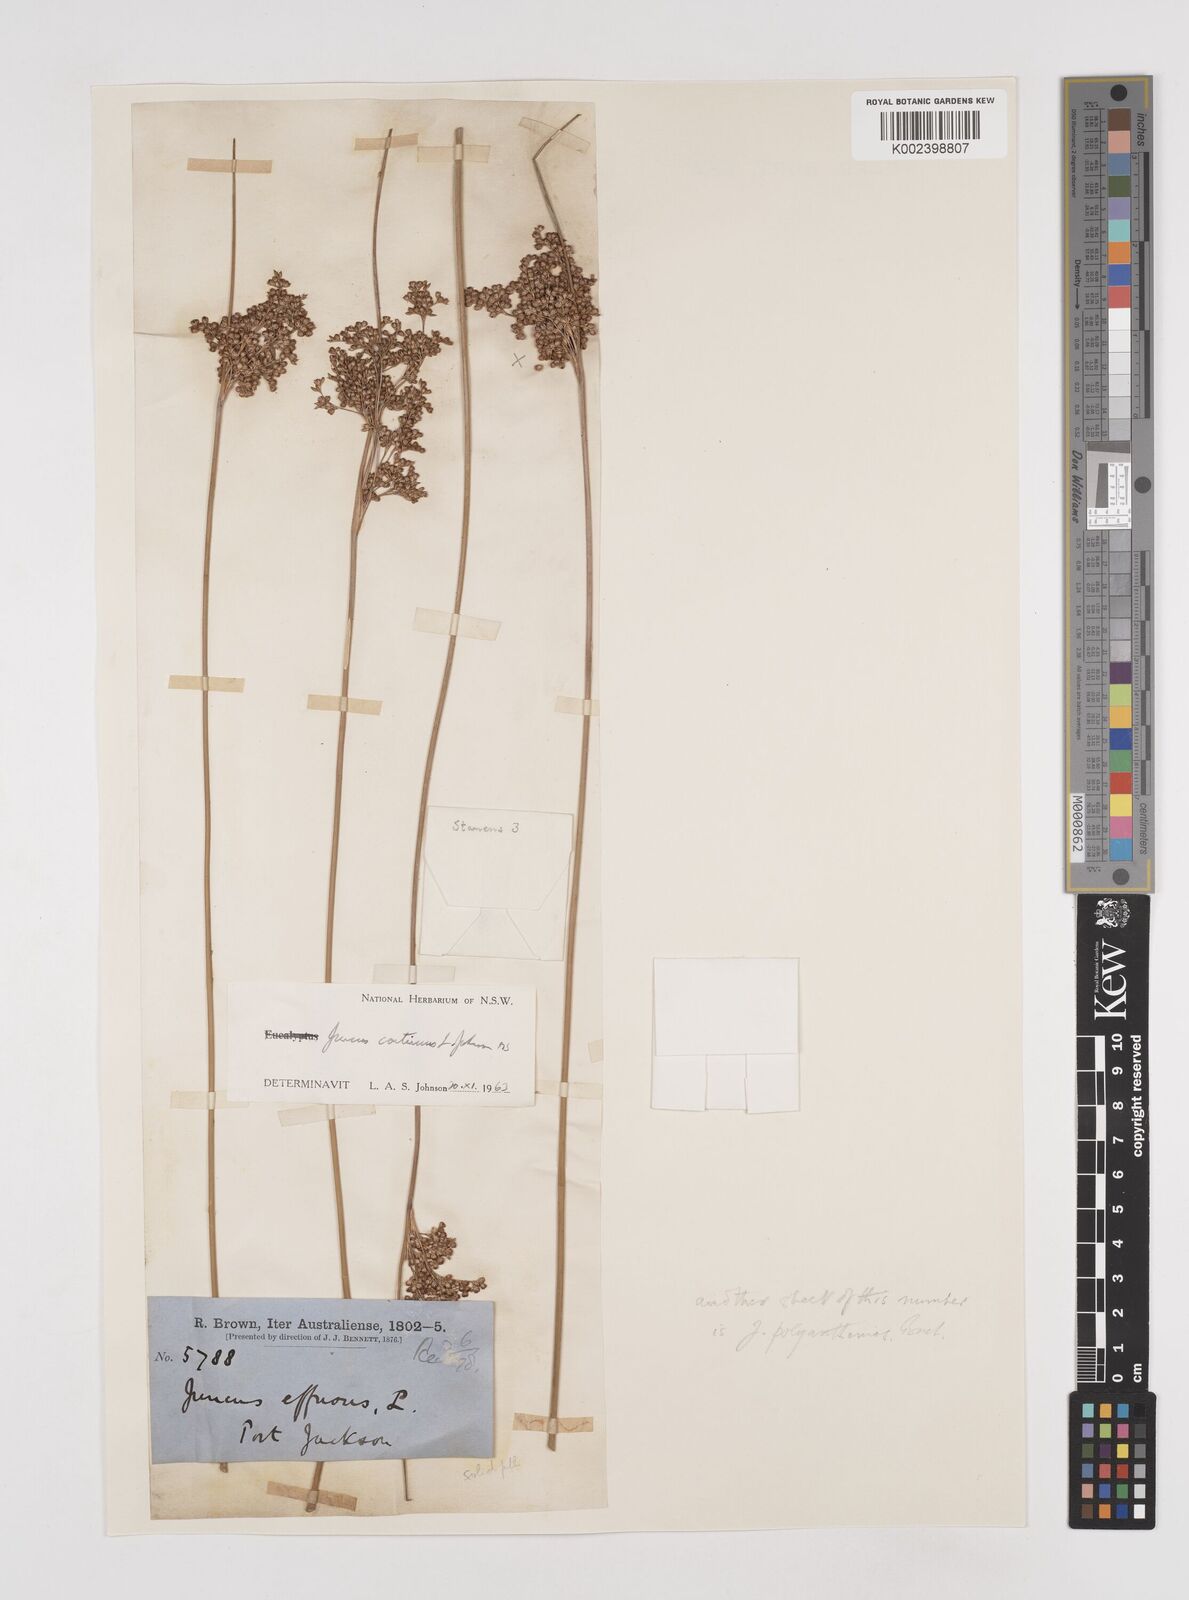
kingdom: Plantae
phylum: Tracheophyta
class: Liliopsida
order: Poales
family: Juncaceae
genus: Juncus
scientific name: Juncus continuus
